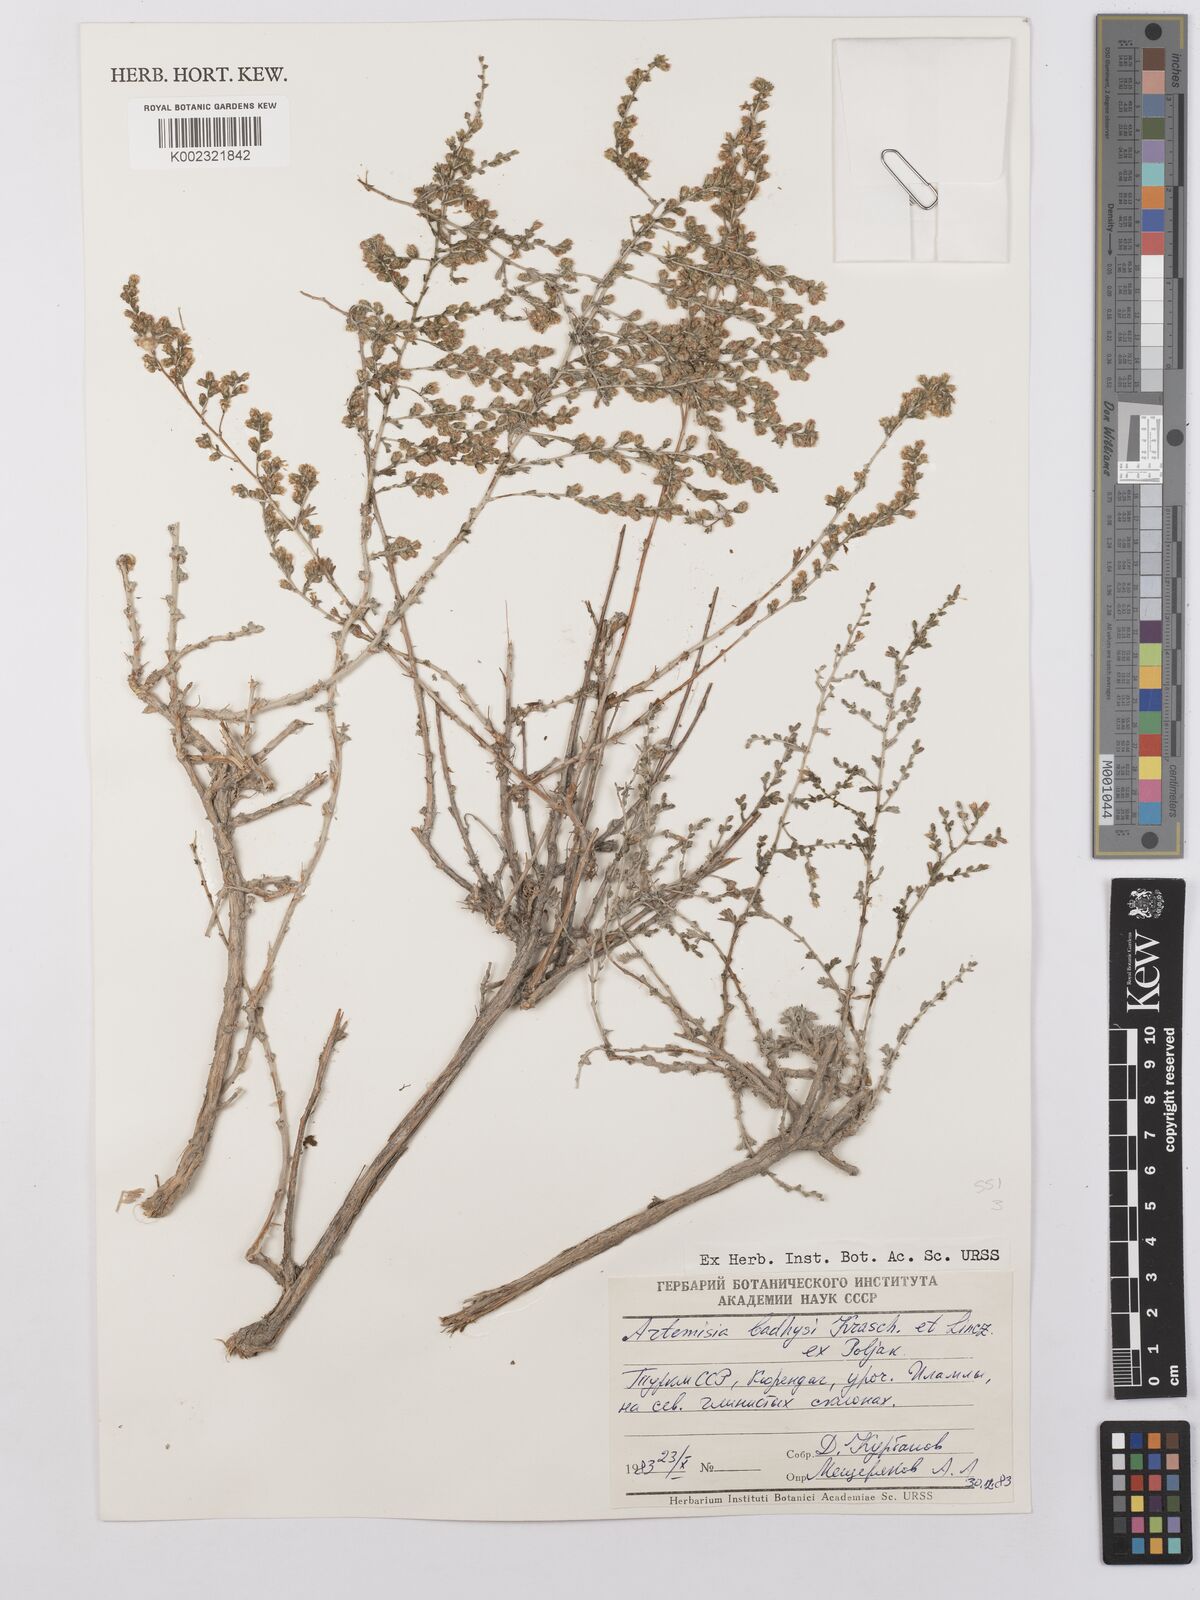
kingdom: Plantae
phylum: Tracheophyta
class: Magnoliopsida
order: Asterales
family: Asteraceae
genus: Artemisia
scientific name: Artemisia badghysi
